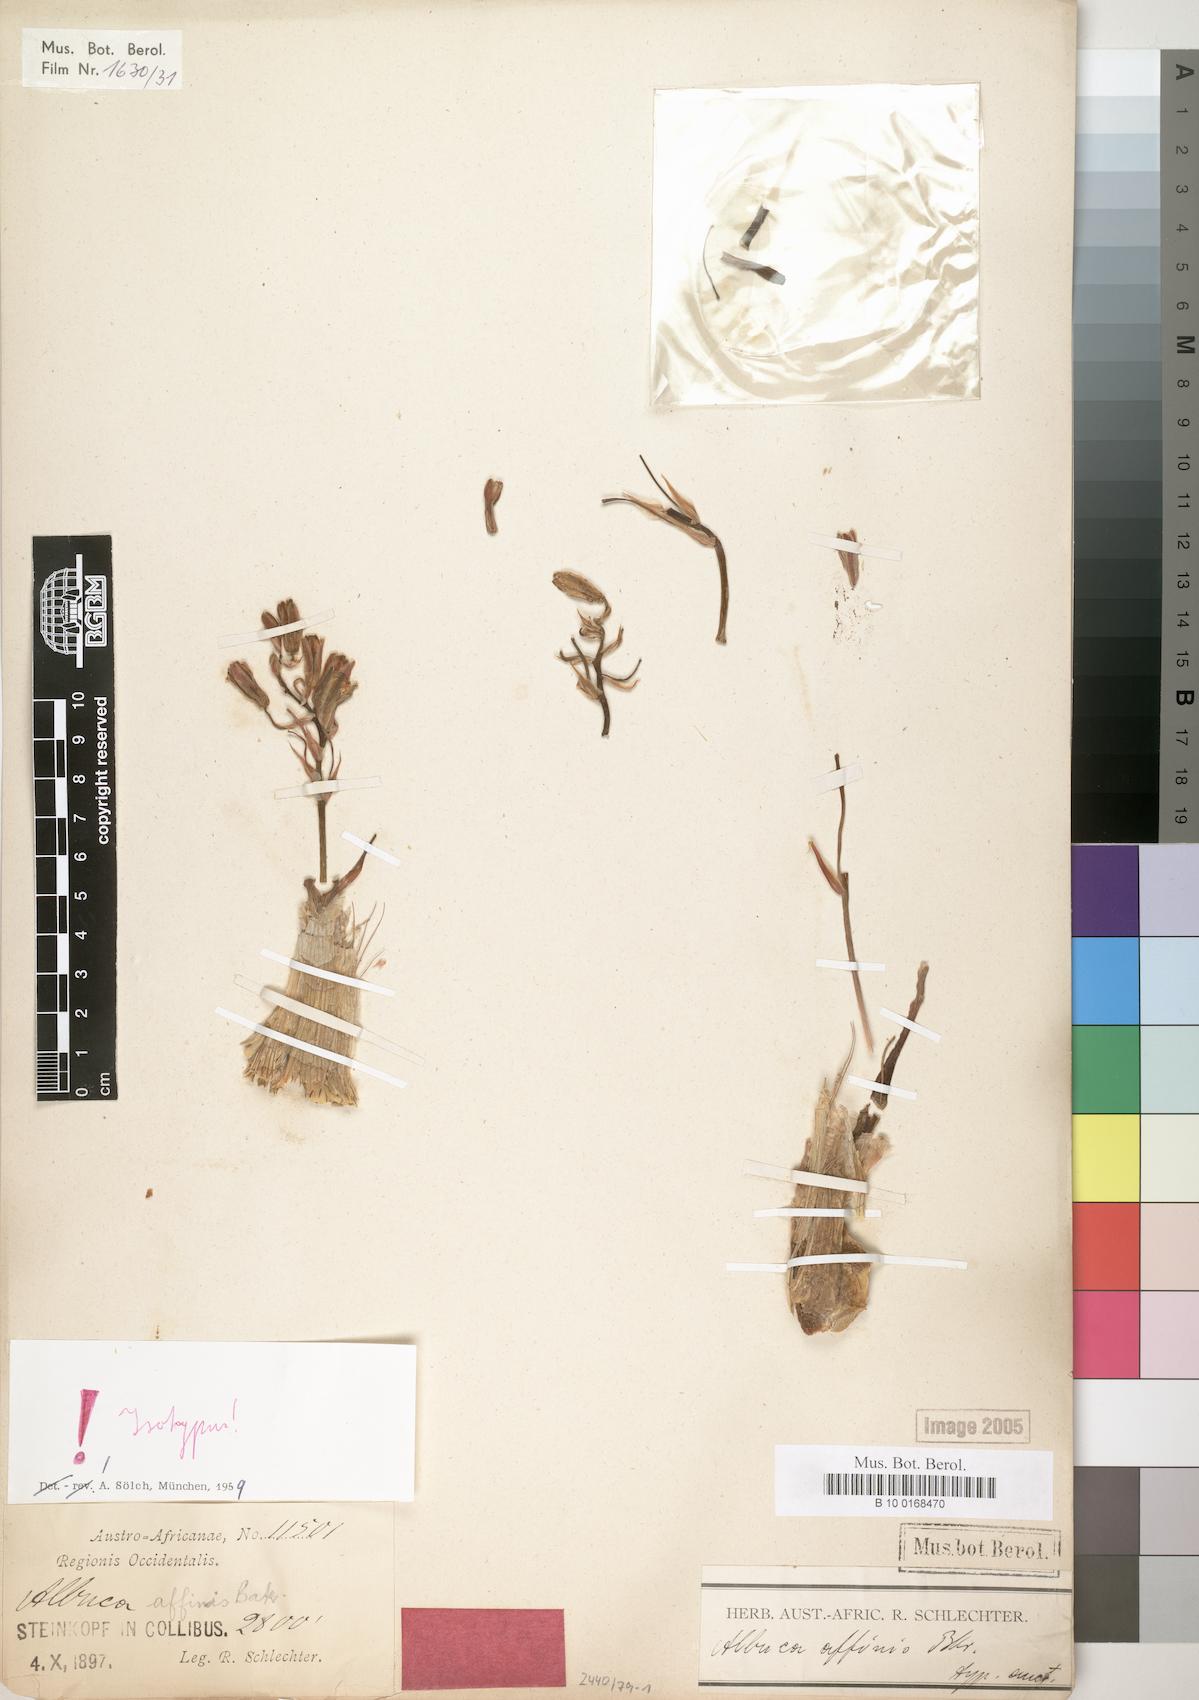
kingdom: Plantae
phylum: Tracheophyta
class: Liliopsida
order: Asparagales
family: Asparagaceae
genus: Ornithogalum
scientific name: Ornithogalum simile
